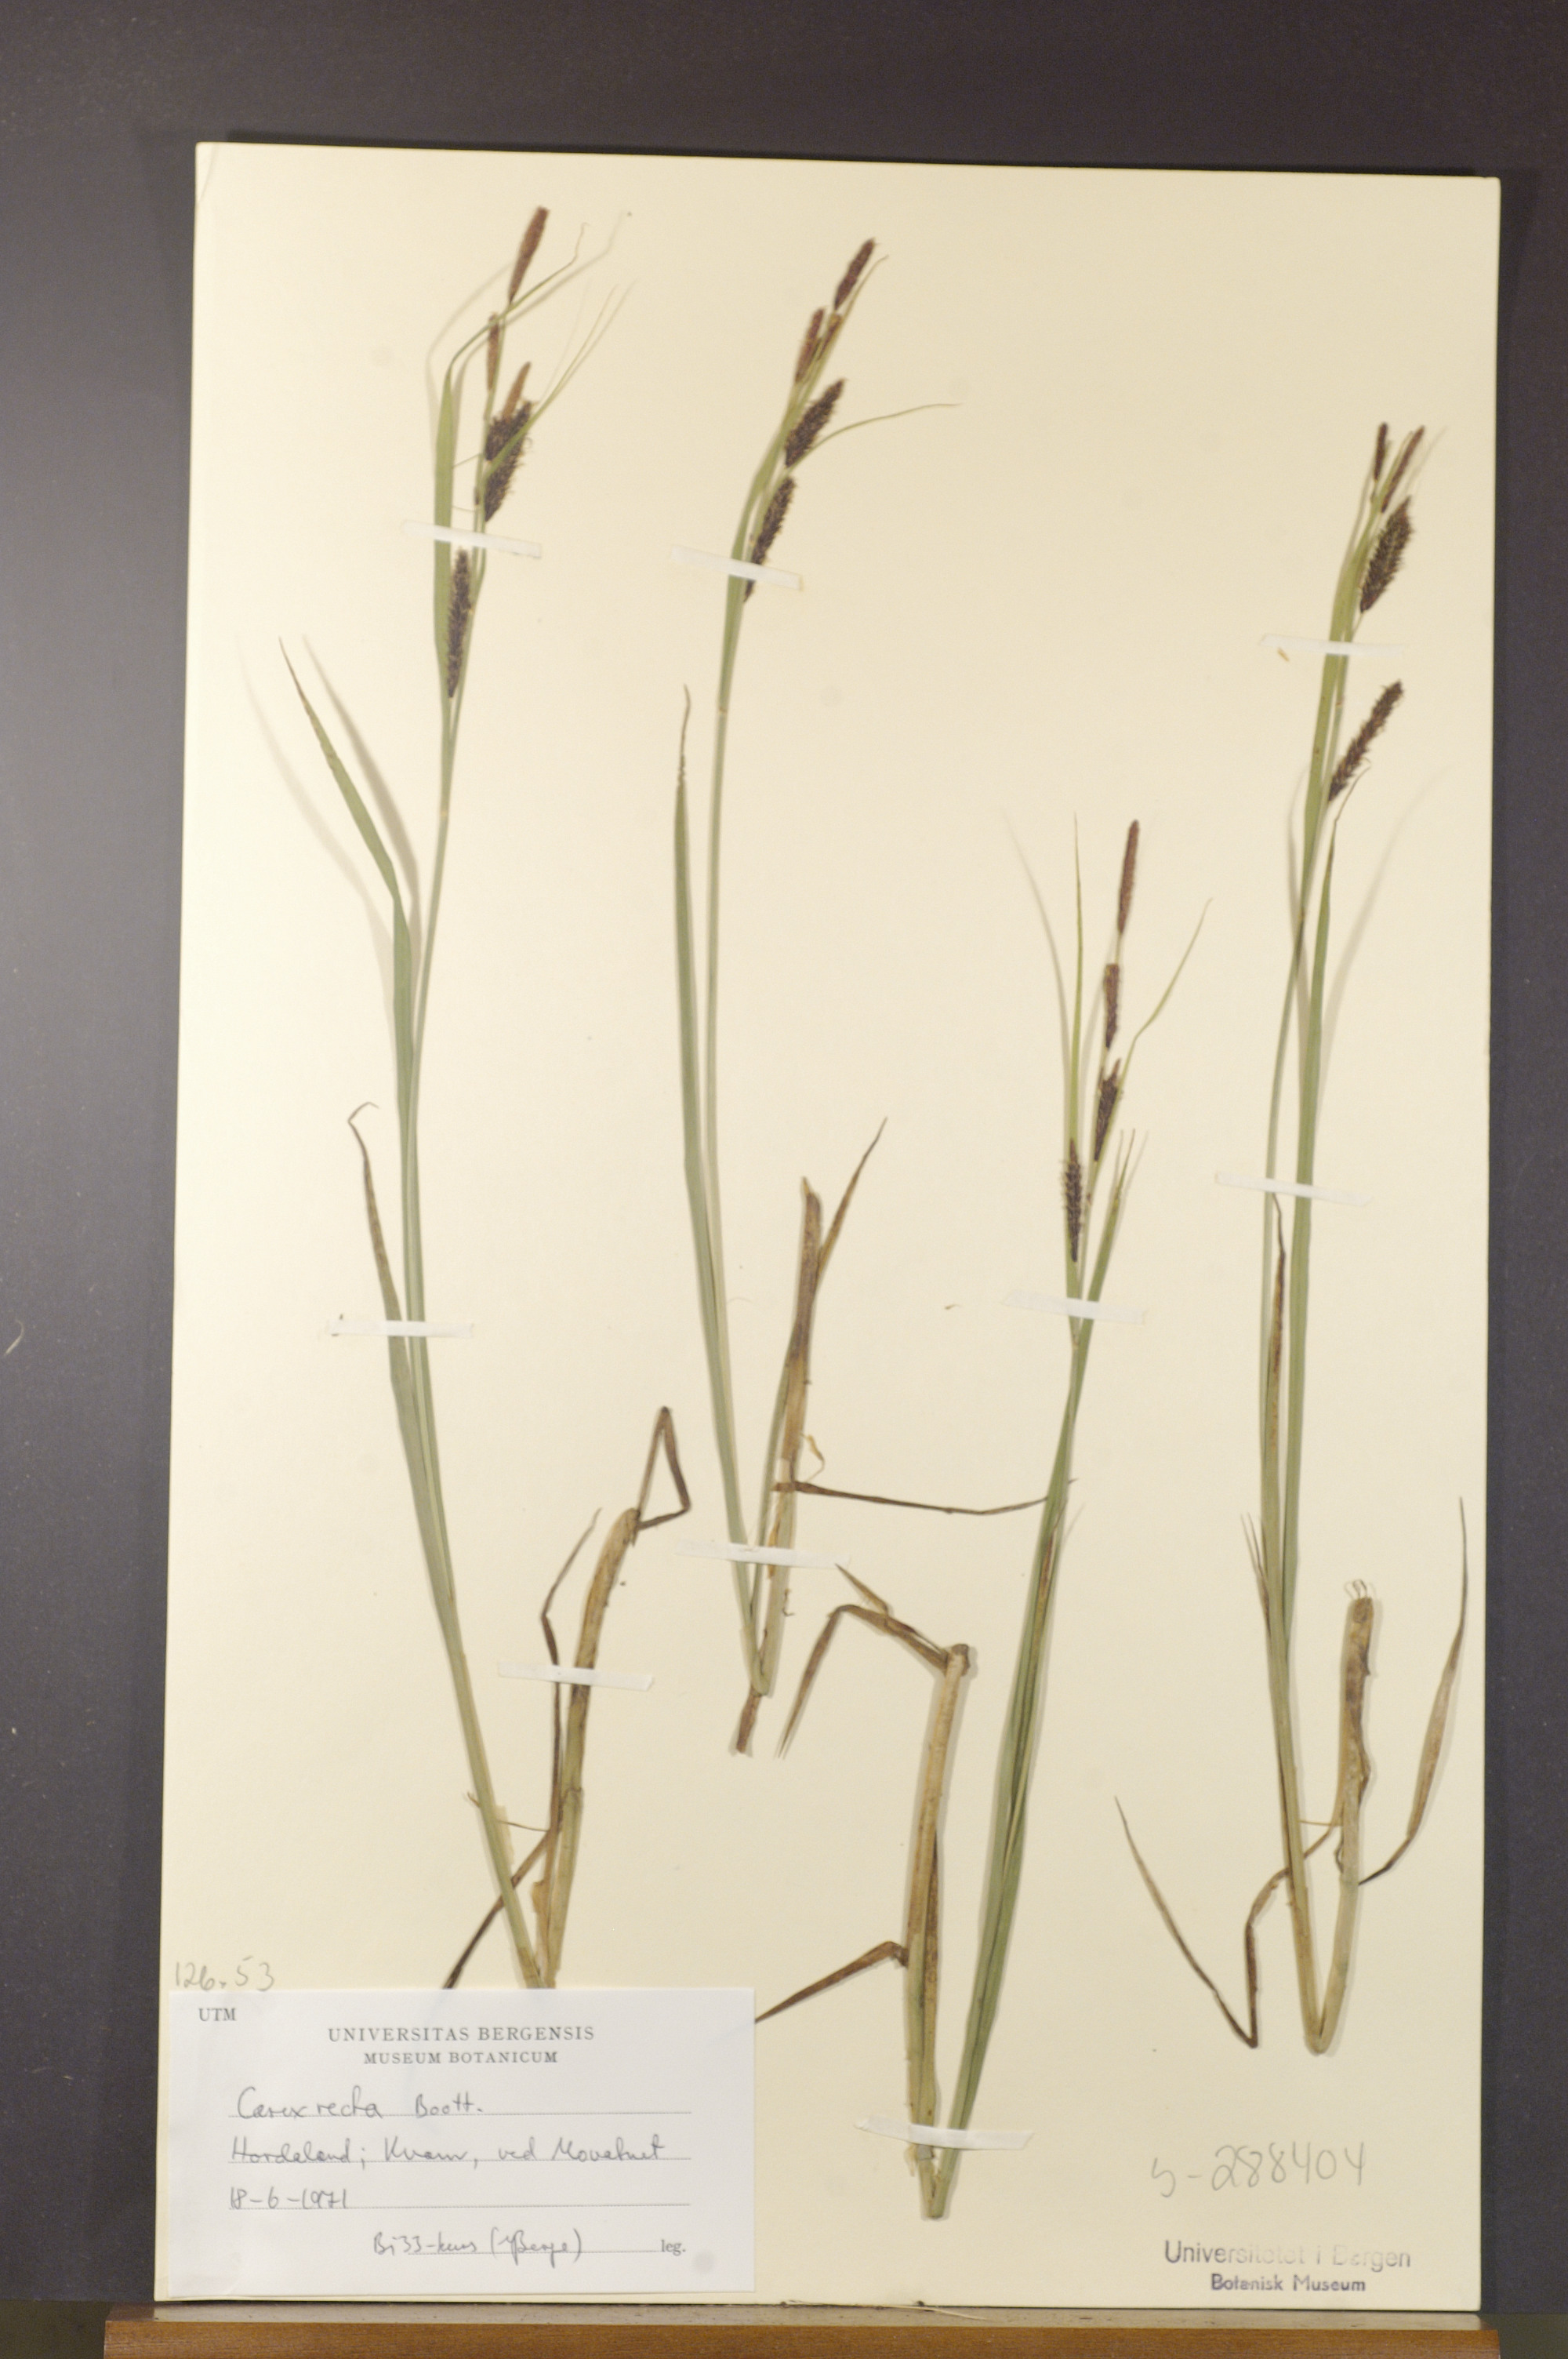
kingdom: Plantae
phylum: Tracheophyta
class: Liliopsida
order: Poales
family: Cyperaceae
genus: Carex
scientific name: Carex recta
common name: Estuarine sedge
